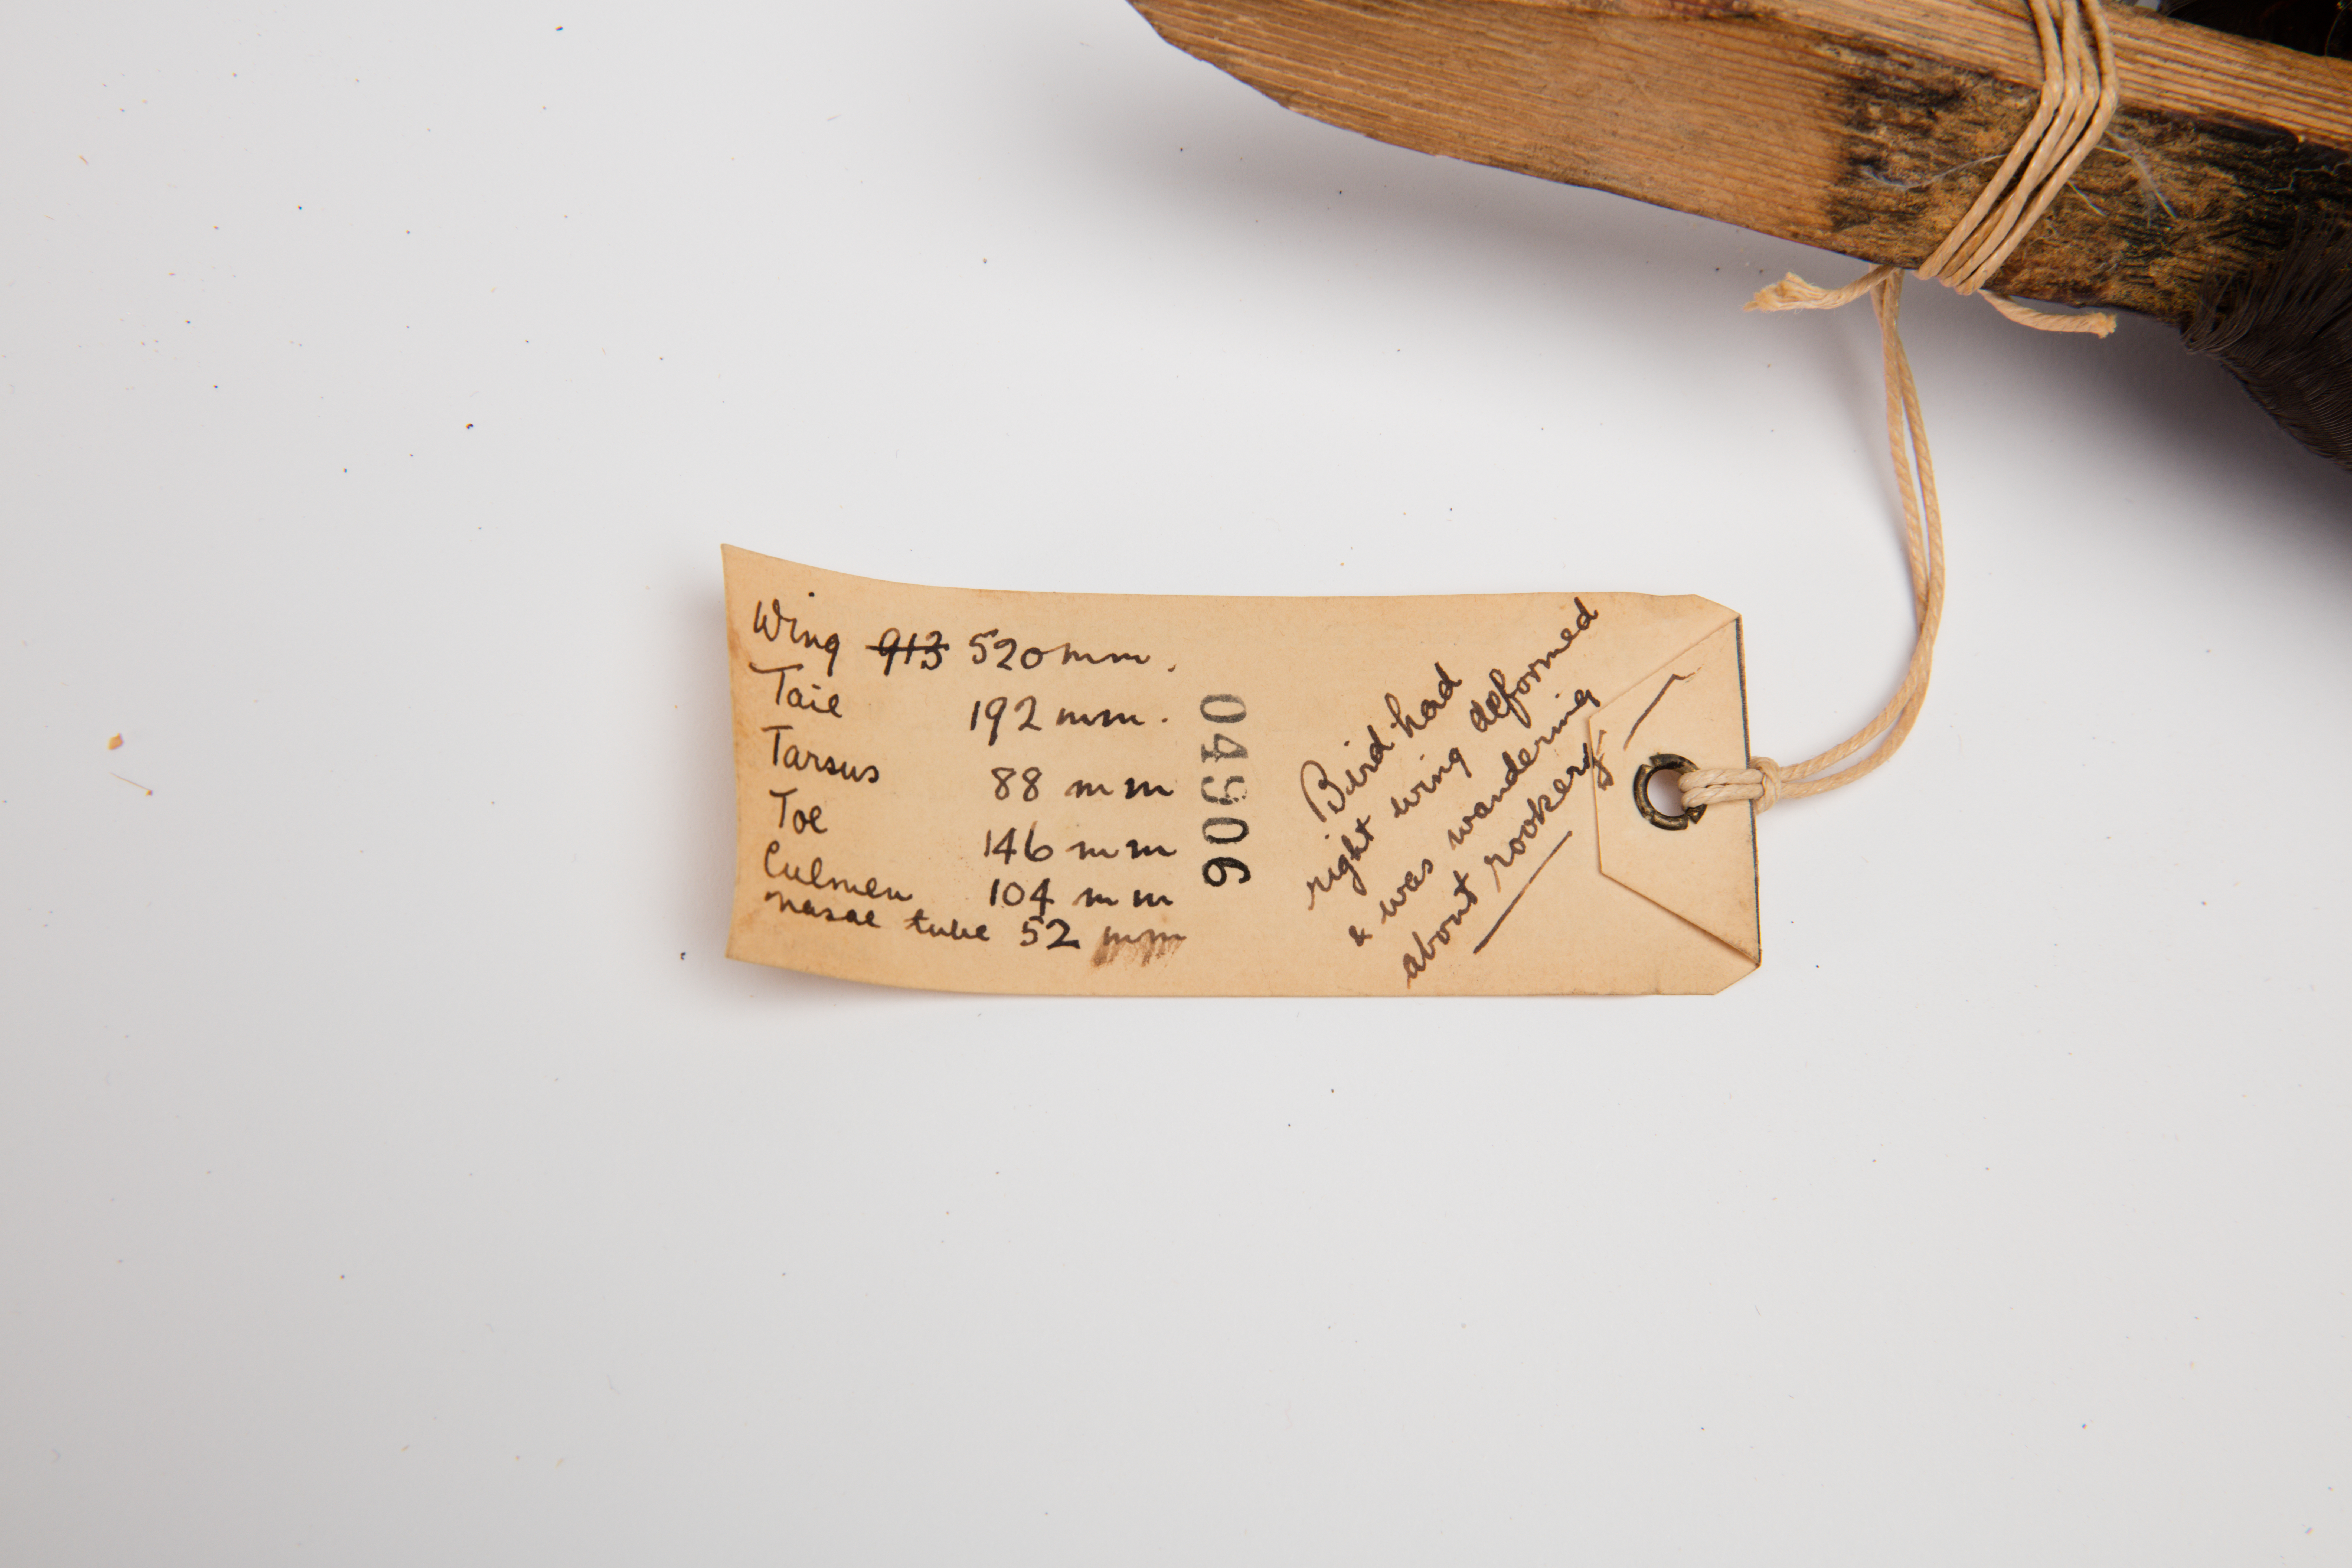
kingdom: Animalia
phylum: Chordata
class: Aves
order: Procellariiformes
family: Procellariidae
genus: Macronectes
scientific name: Macronectes giganteus
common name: Southern giant petrel
